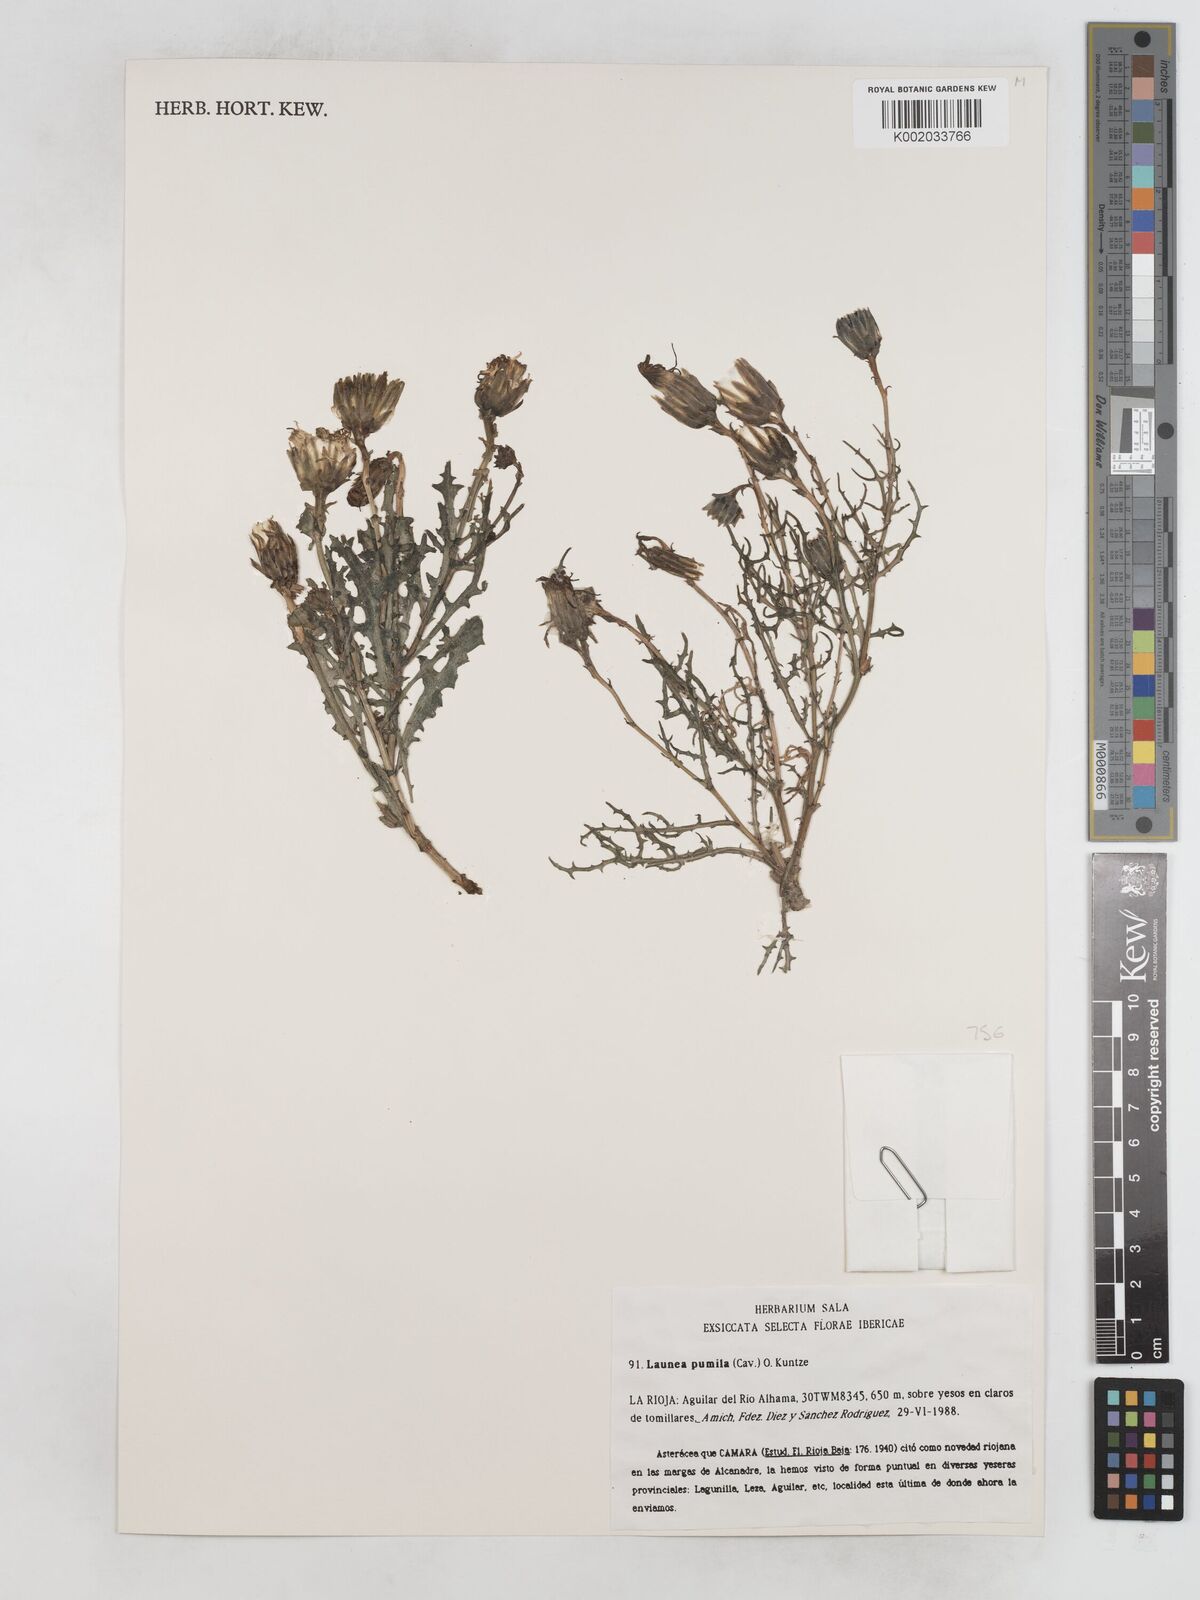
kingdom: Plantae
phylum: Tracheophyta
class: Magnoliopsida
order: Asterales
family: Asteraceae
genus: Launaea
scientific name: Launaea pumila
